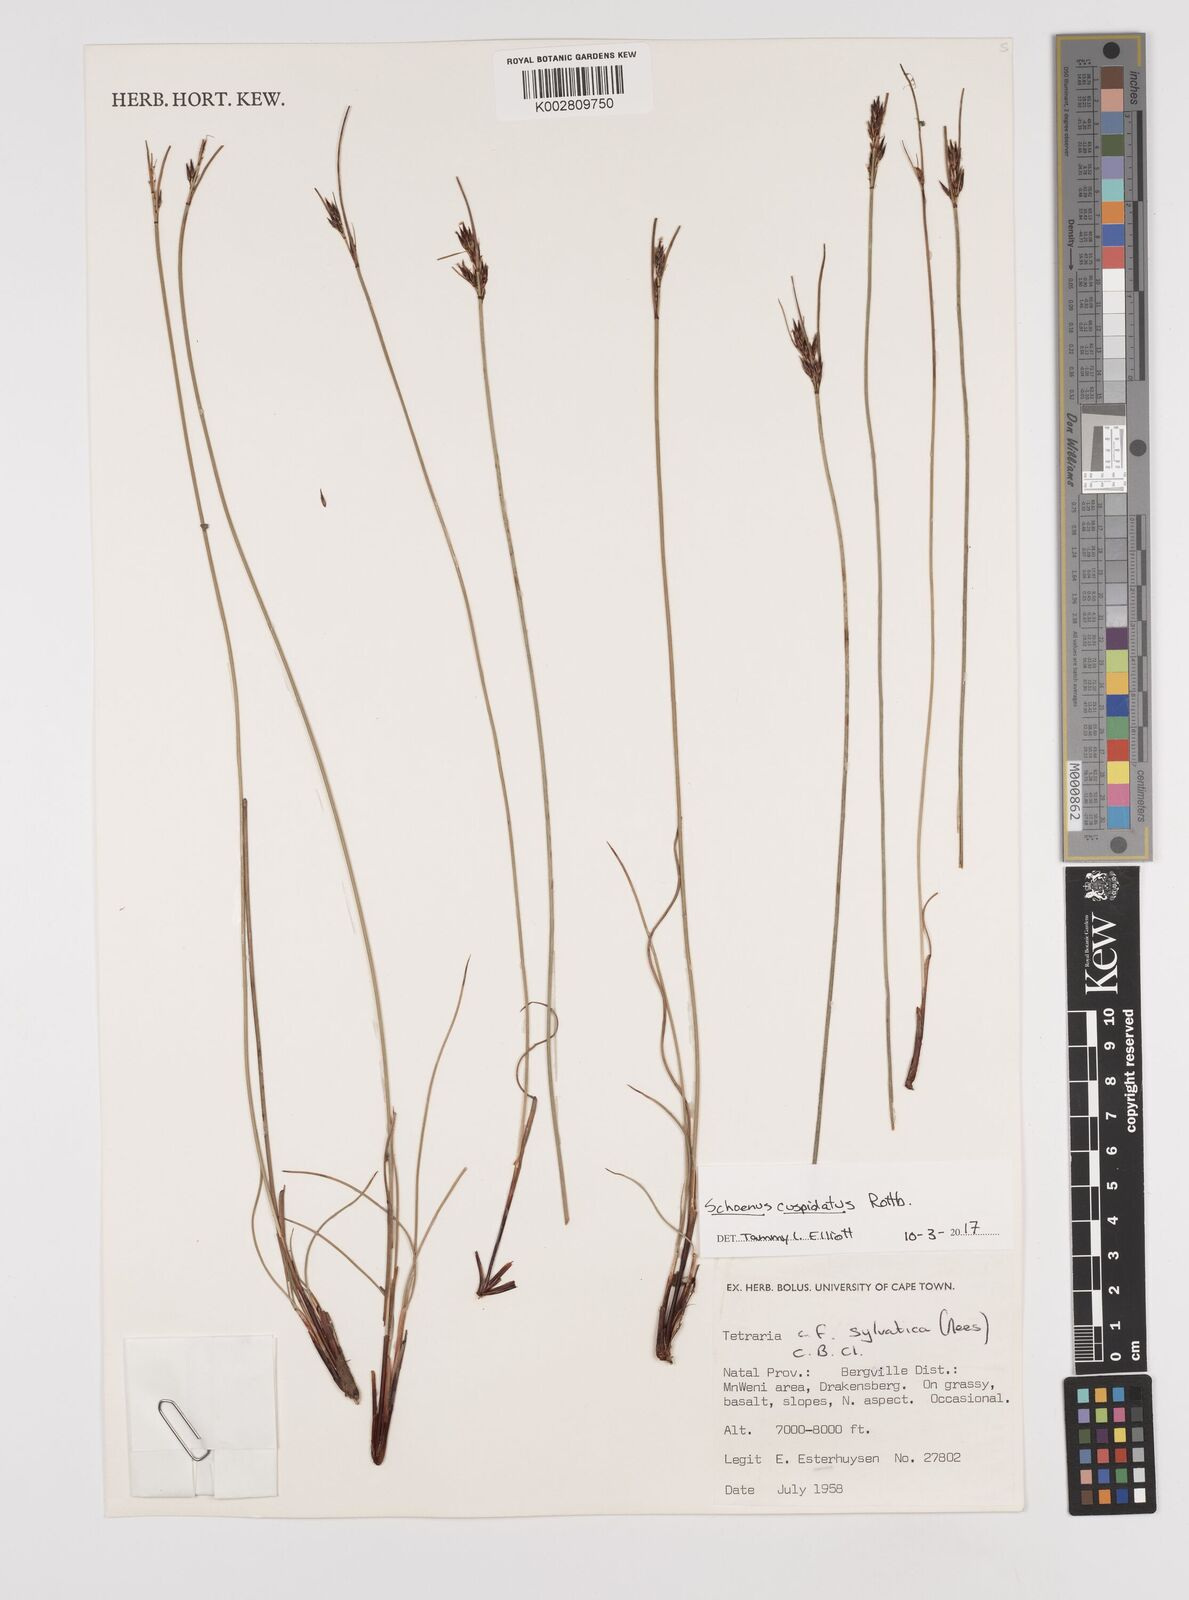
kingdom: Plantae
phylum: Tracheophyta
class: Liliopsida
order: Poales
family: Cyperaceae
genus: Schoenus
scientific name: Schoenus cuspidatus
